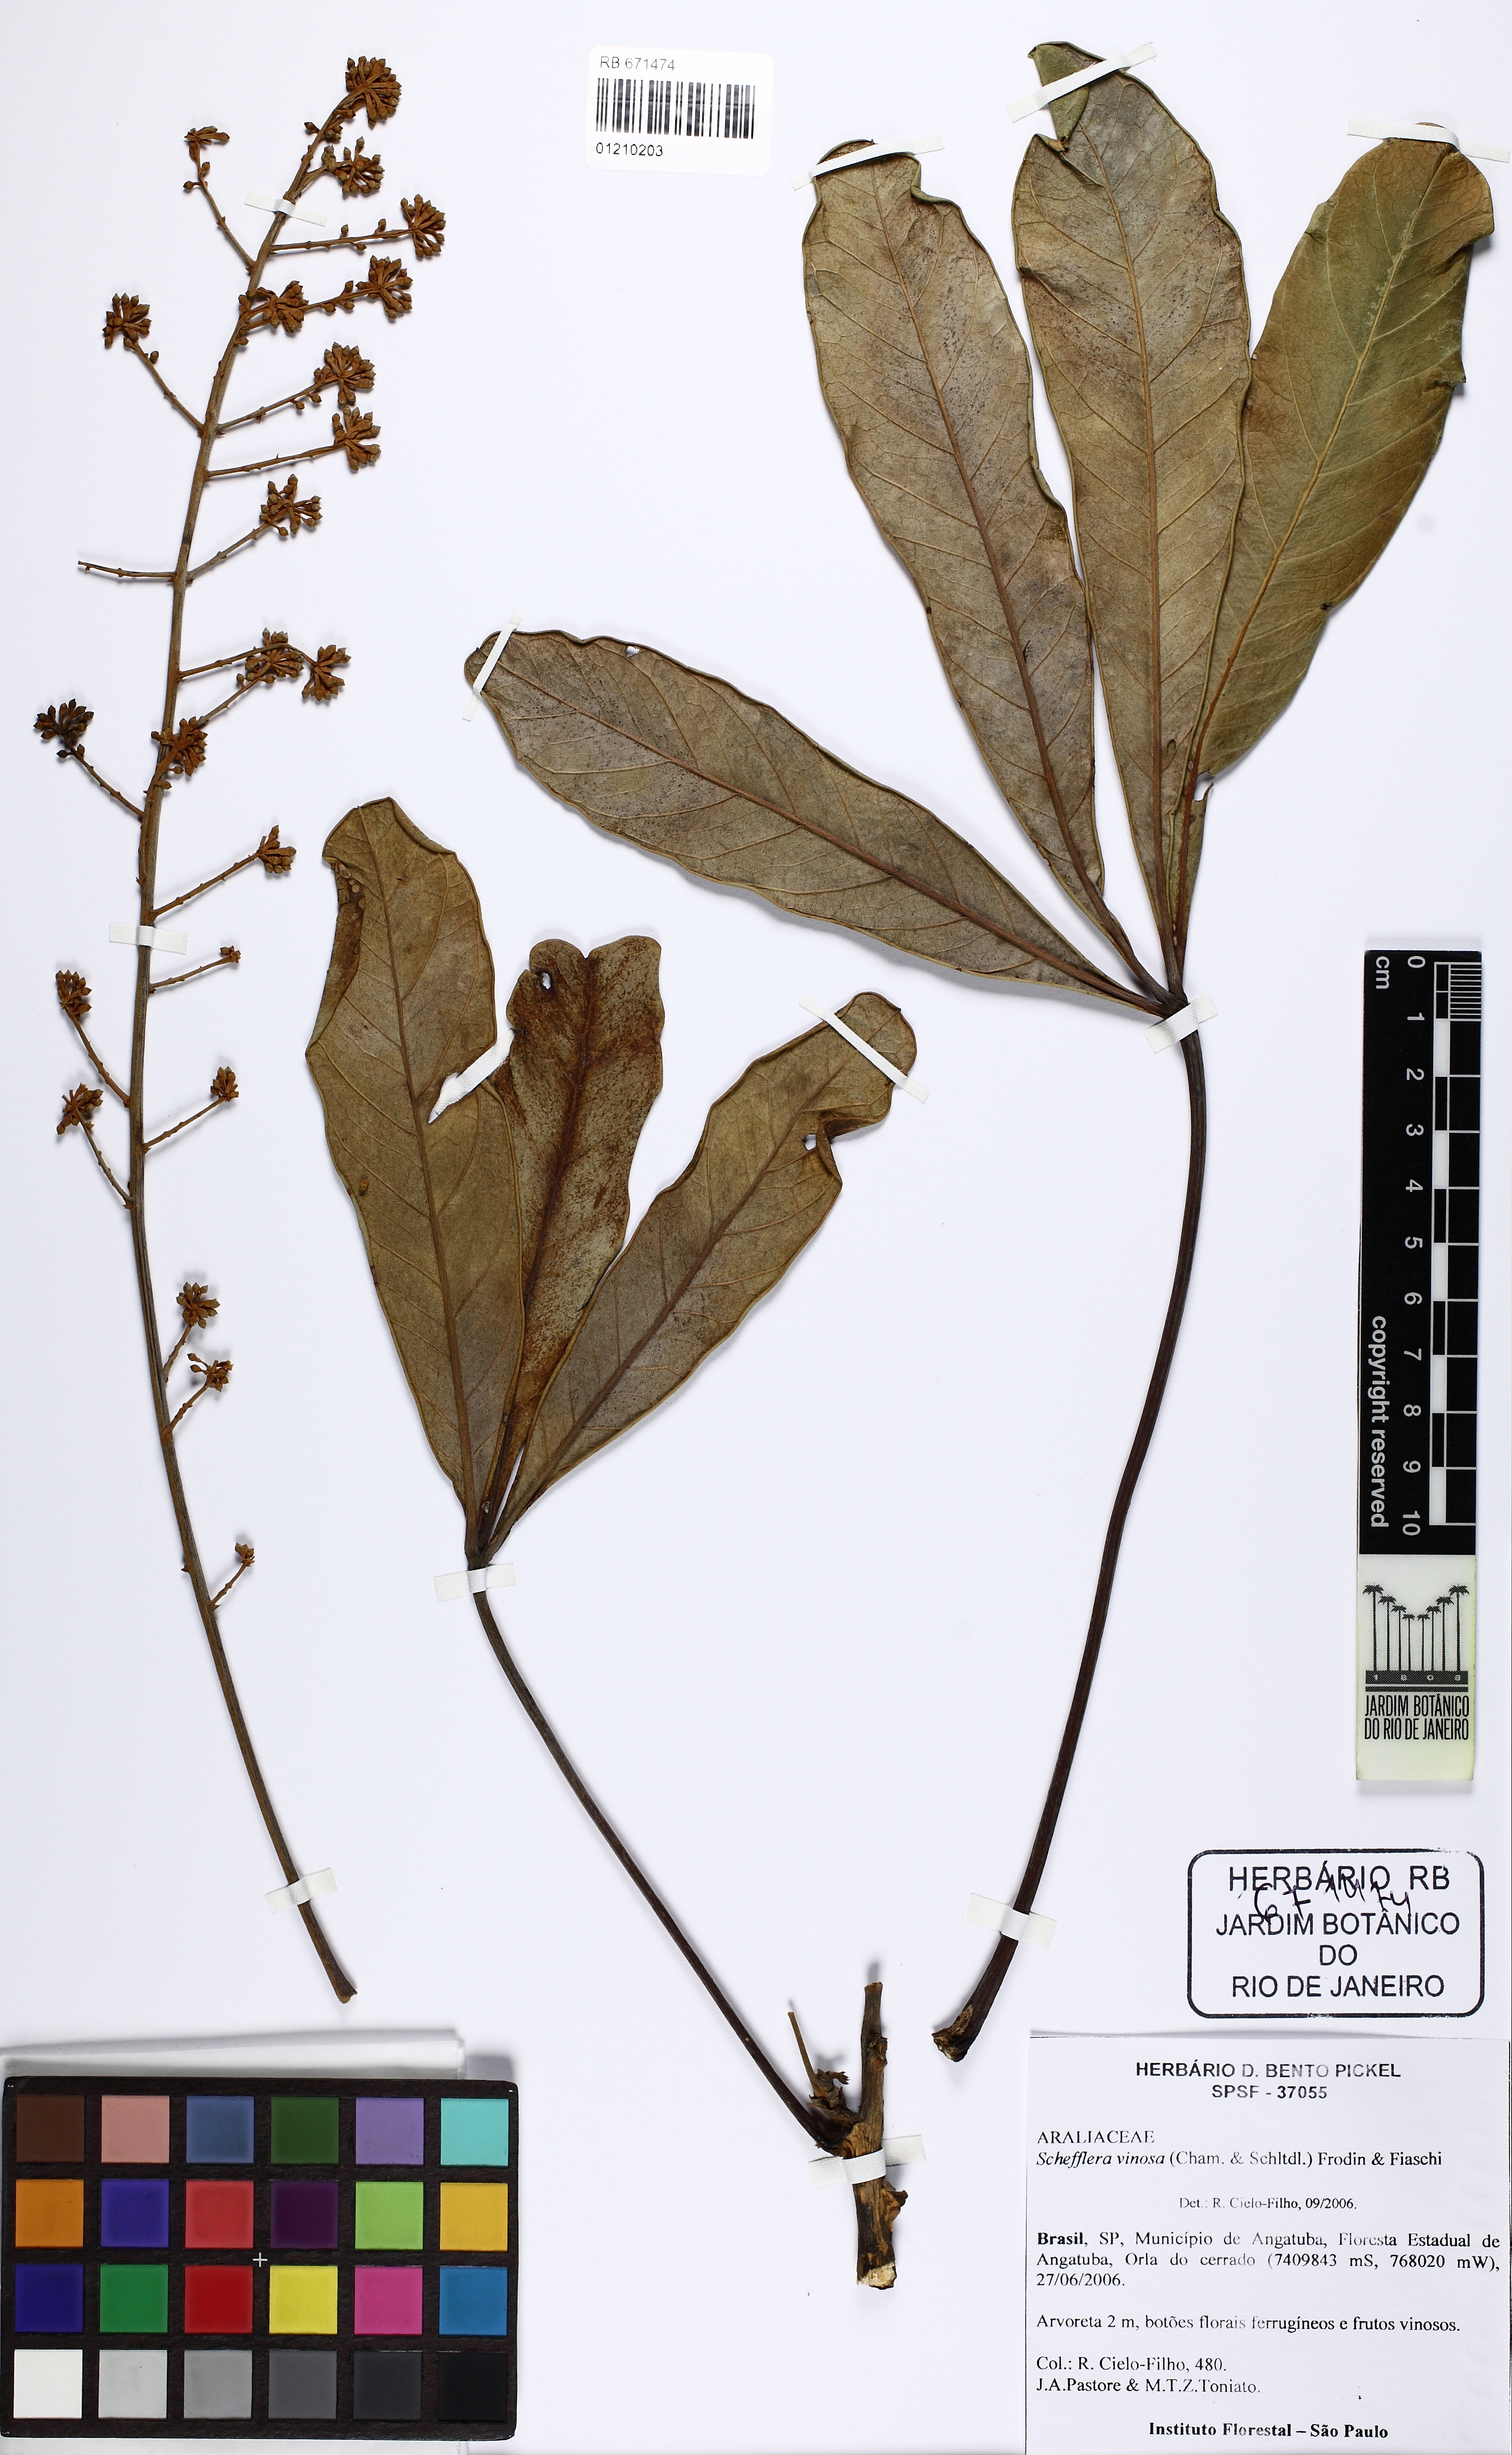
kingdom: Plantae
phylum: Tracheophyta
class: Magnoliopsida
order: Apiales
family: Araliaceae
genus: Didymopanax
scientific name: Didymopanax vinosus
